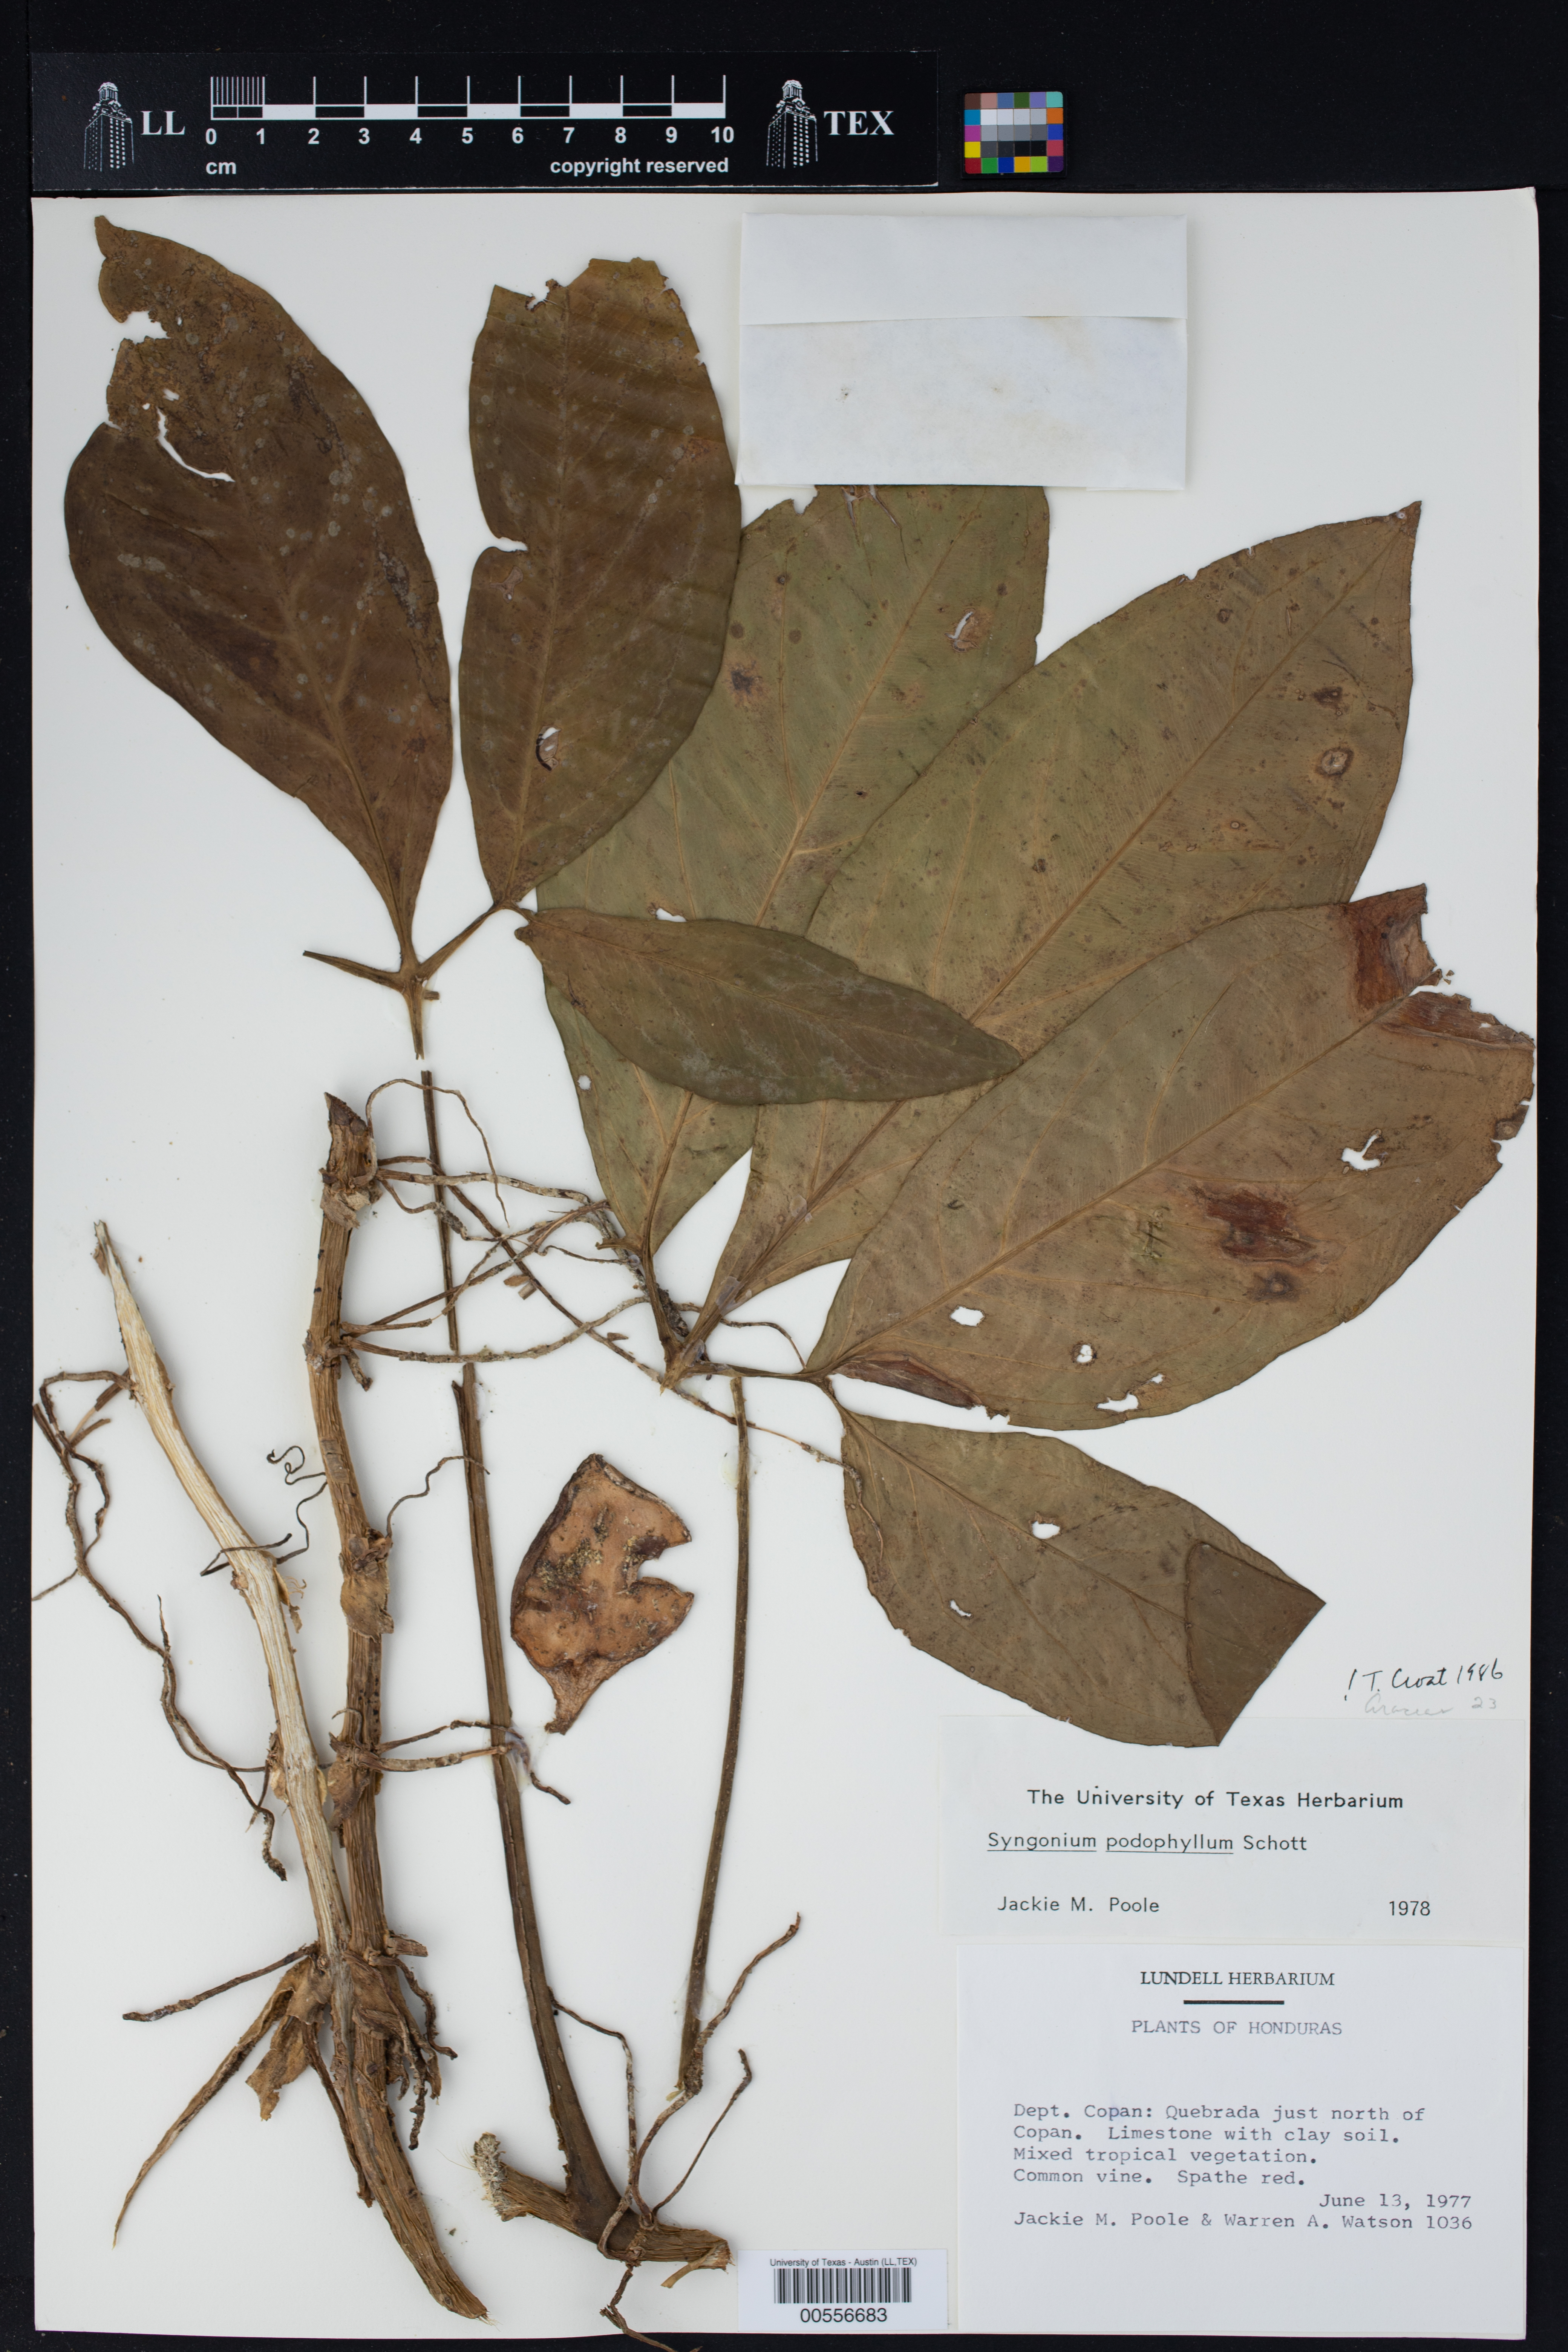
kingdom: Plantae
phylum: Tracheophyta
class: Liliopsida
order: Alismatales
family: Araceae
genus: Syngonium
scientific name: Syngonium podophyllum
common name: American evergreen
